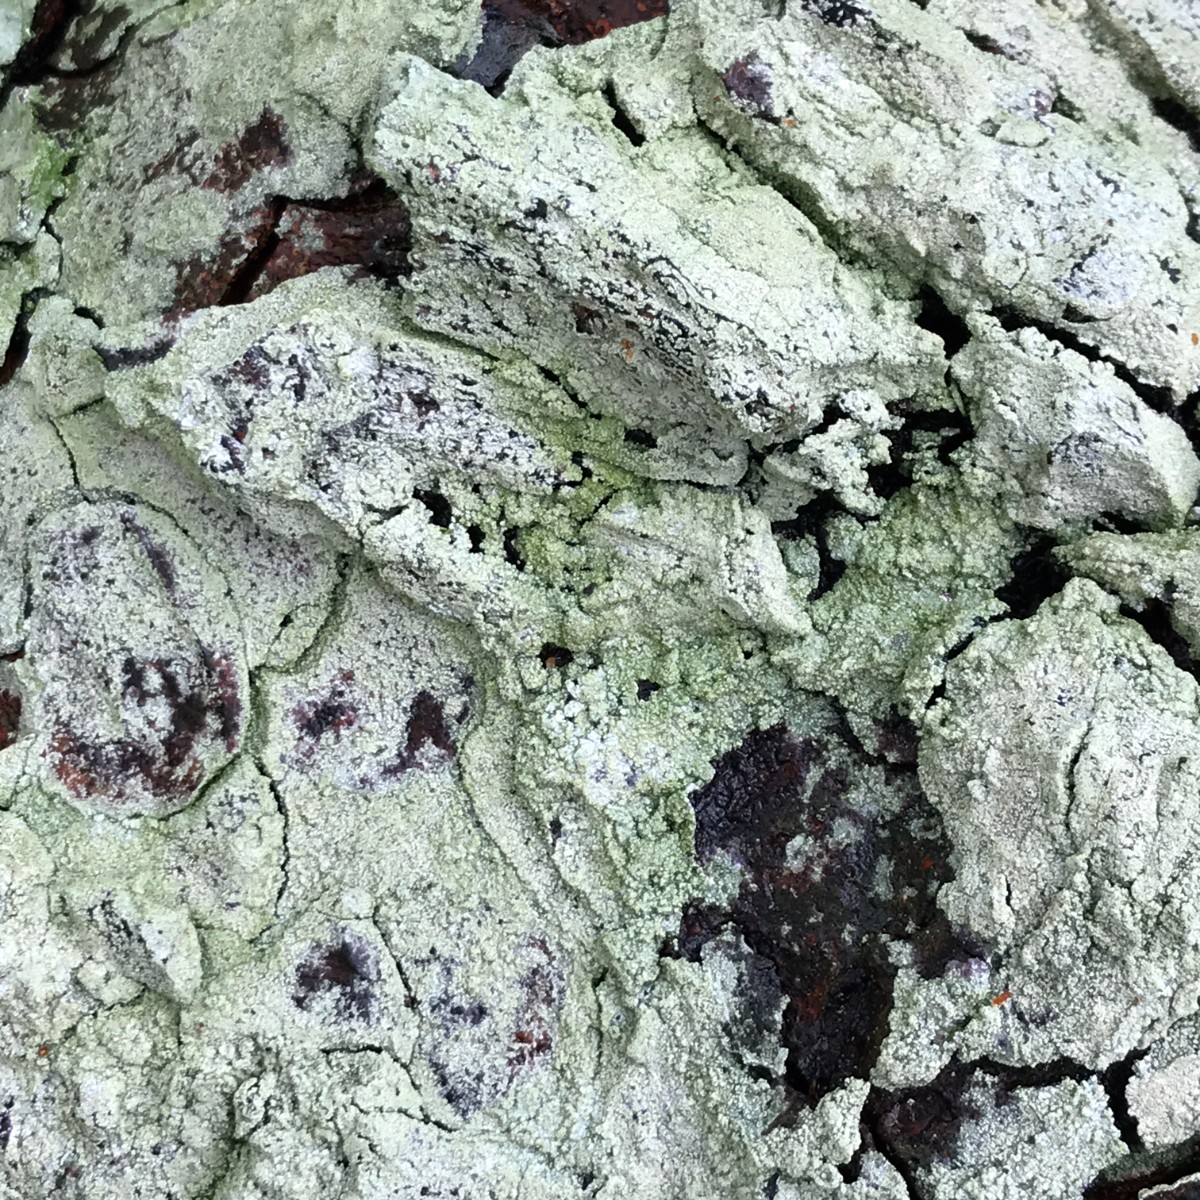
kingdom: Fungi
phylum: Ascomycota
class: Lecanoromycetes
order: Ostropales
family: Phlyctidaceae
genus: Phlyctis
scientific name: Phlyctis argena
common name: almindelig sølvlav
